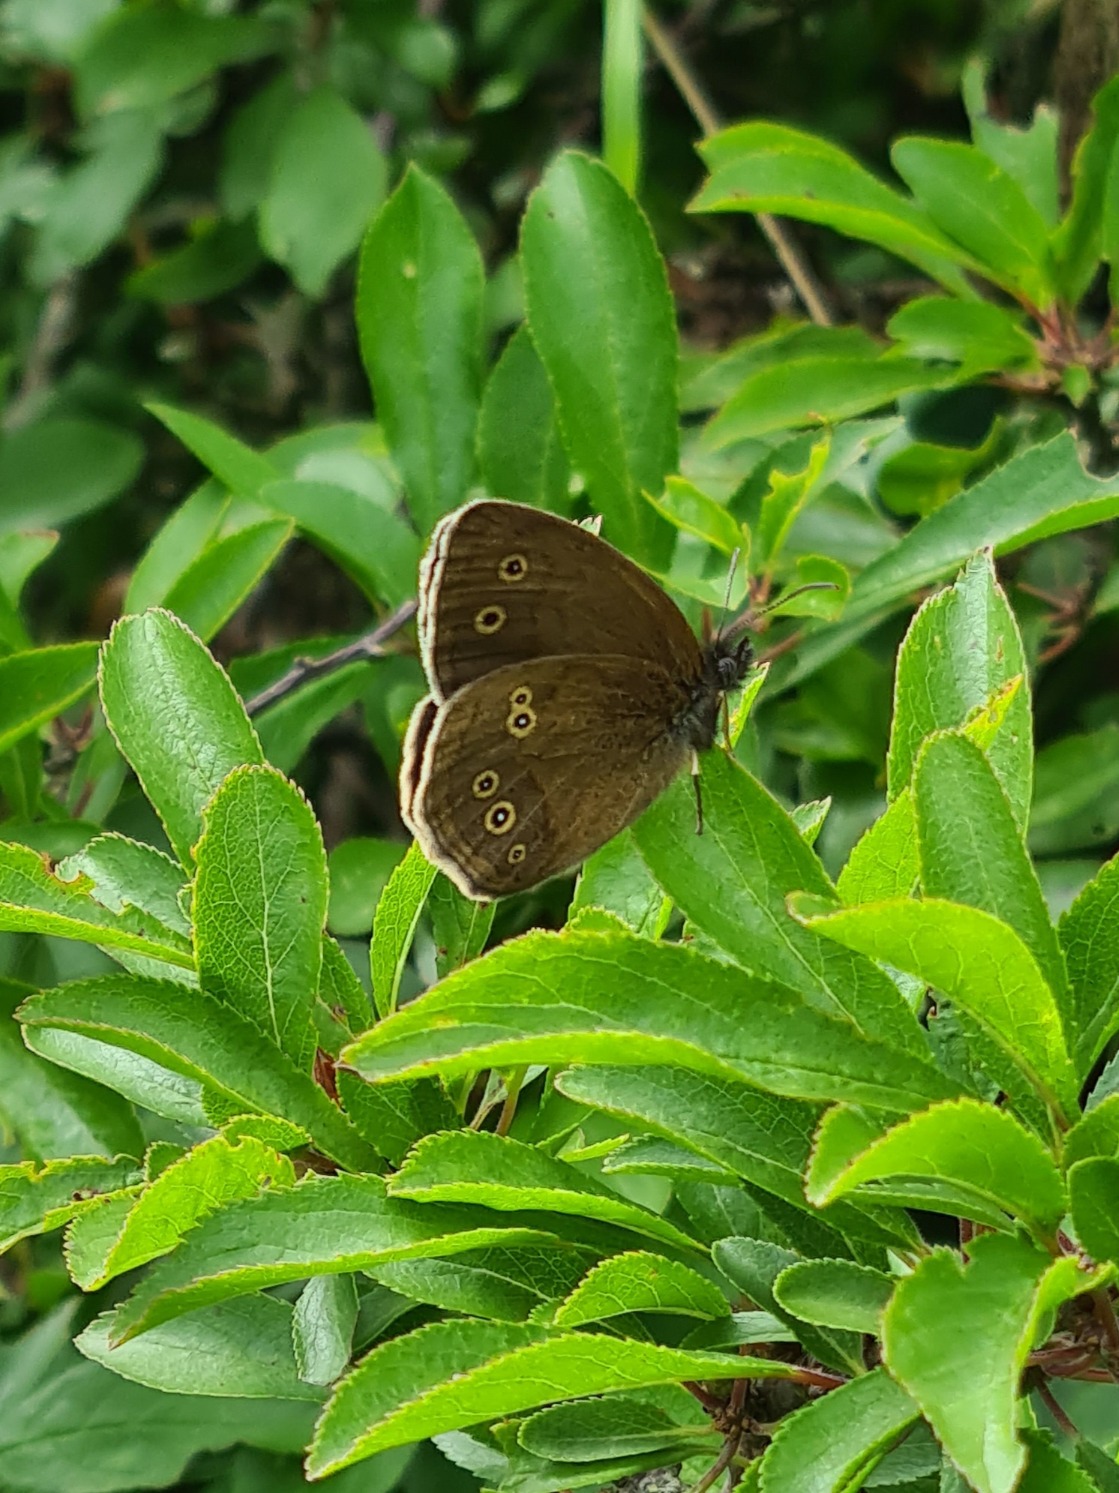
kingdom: Animalia
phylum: Arthropoda
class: Insecta
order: Lepidoptera
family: Nymphalidae
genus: Aphantopus
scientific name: Aphantopus hyperantus
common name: Engrandøje
